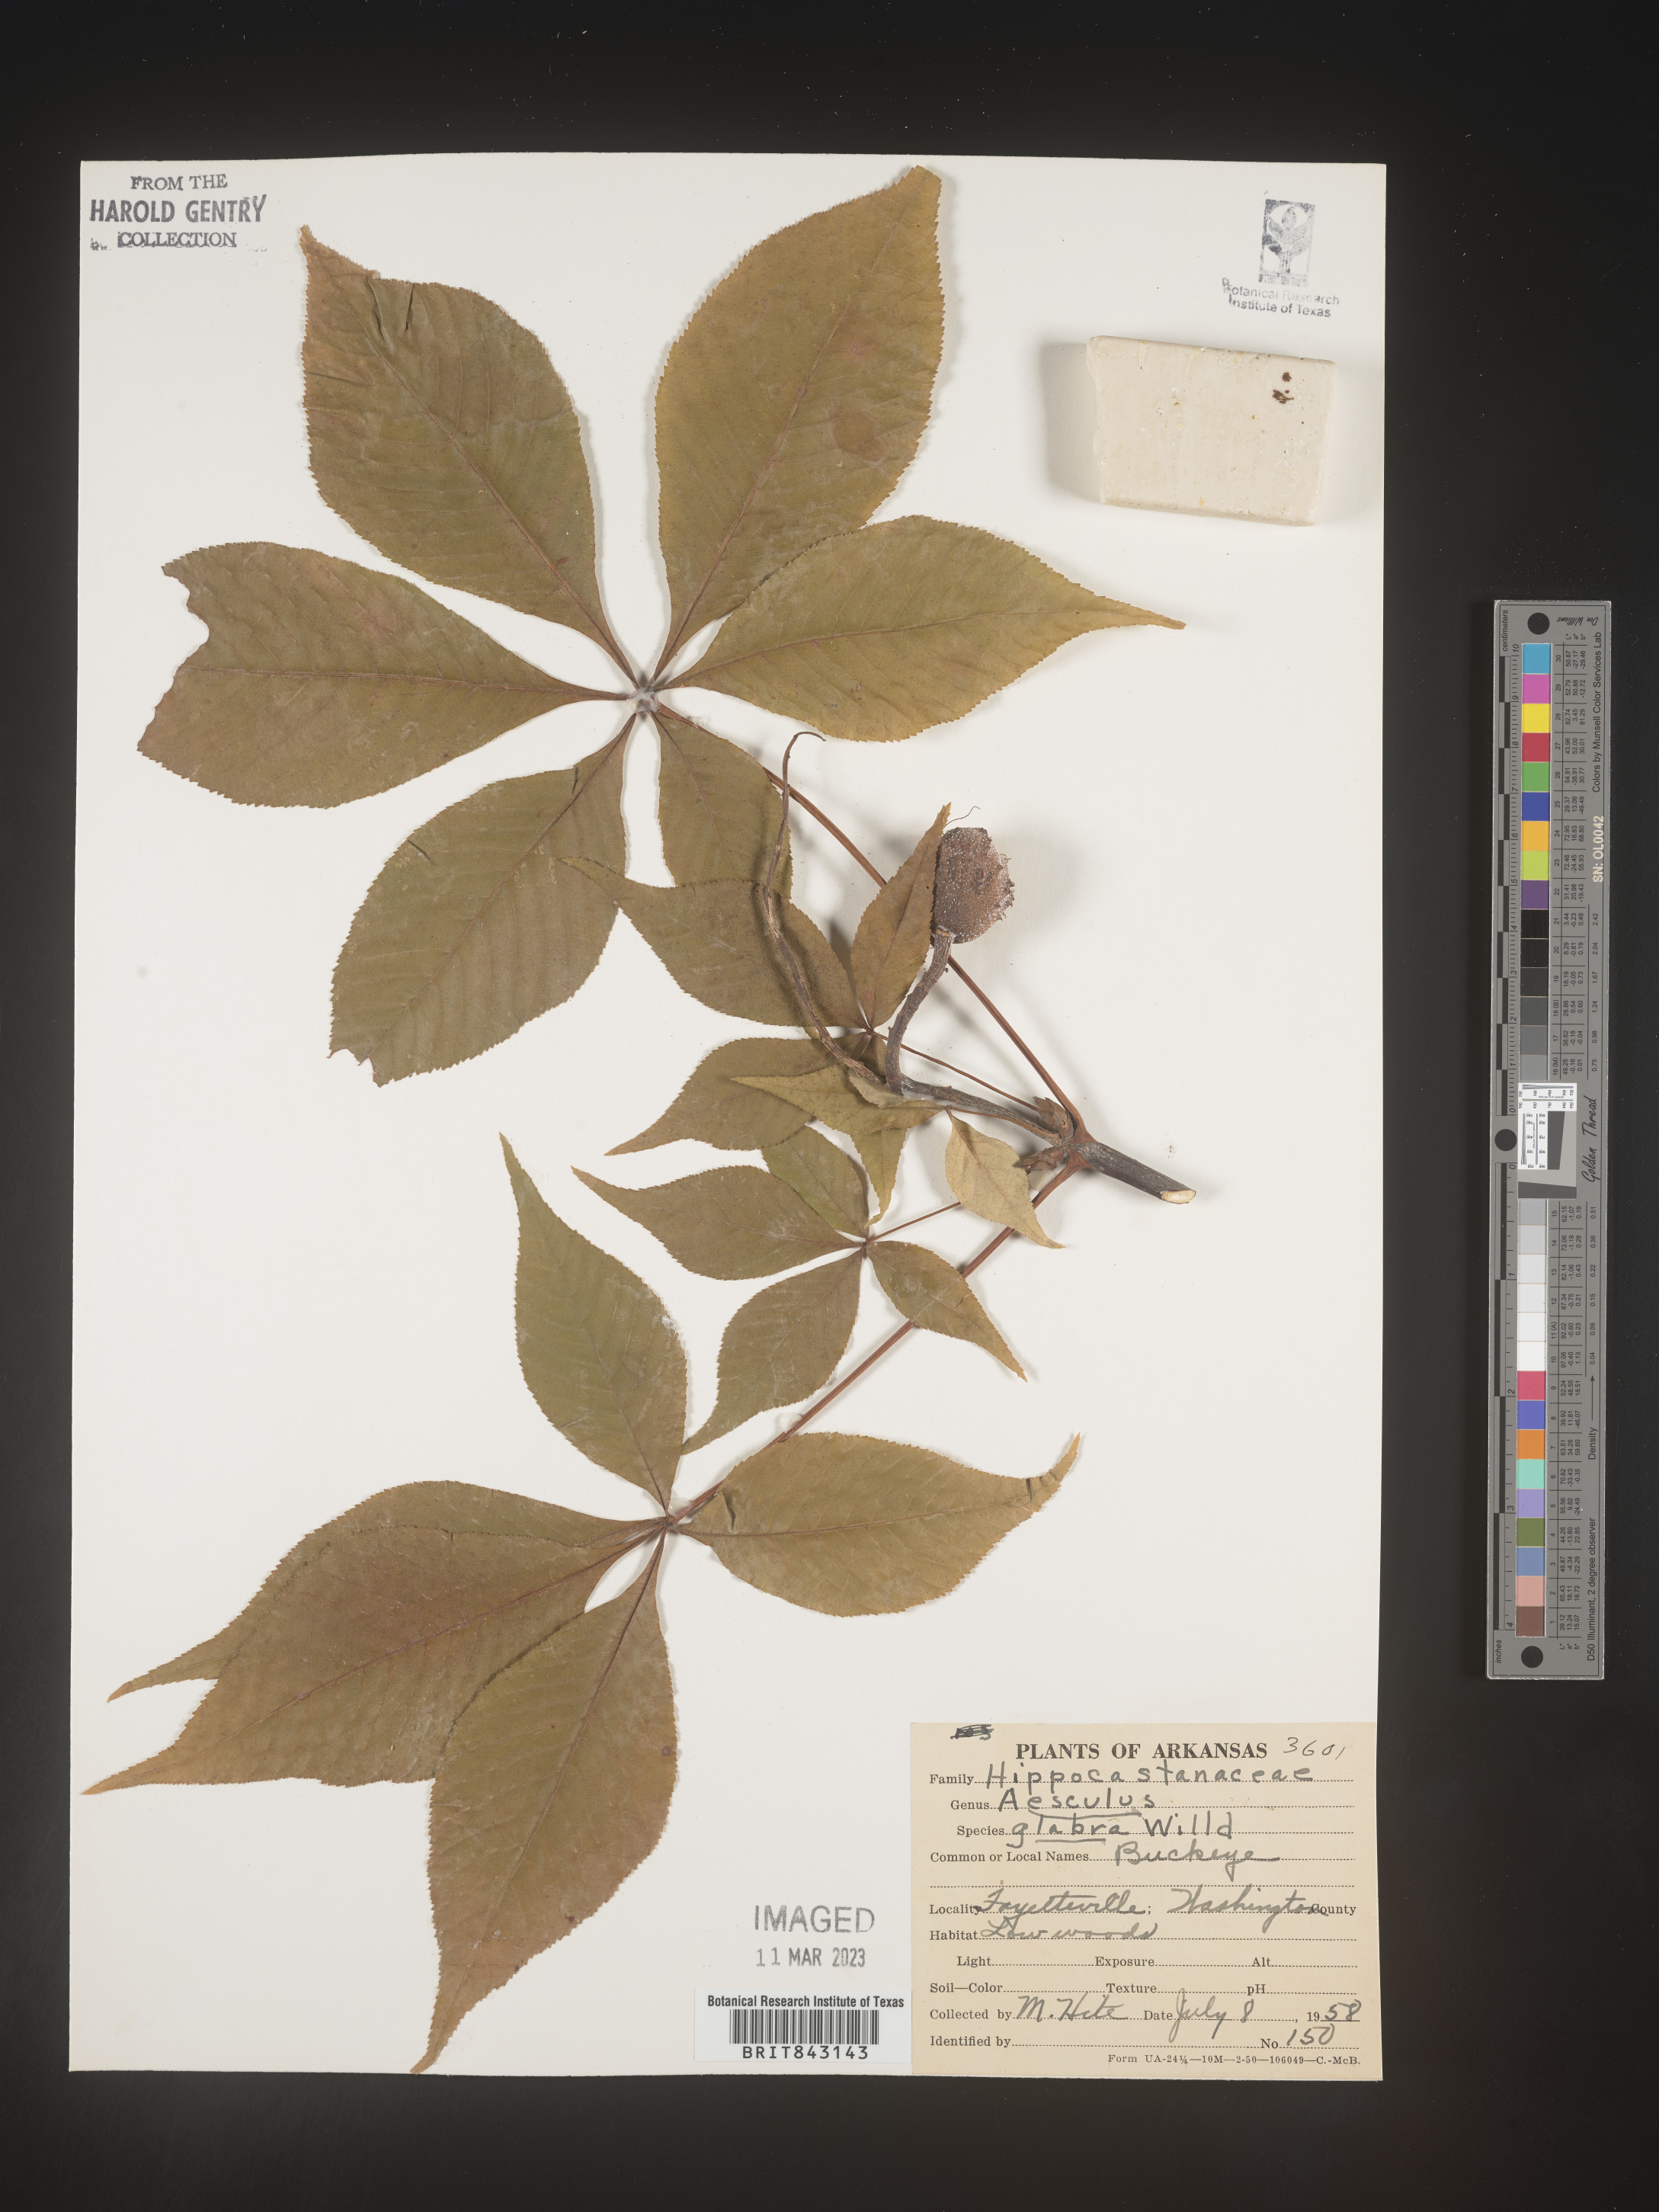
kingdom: Plantae
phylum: Tracheophyta
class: Magnoliopsida
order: Sapindales
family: Sapindaceae
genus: Aesculus
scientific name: Aesculus glabra
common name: Ohio buckeye
